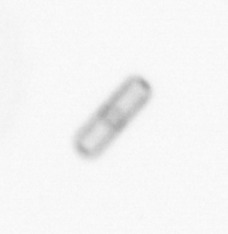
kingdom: Chromista
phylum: Ochrophyta
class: Bacillariophyceae
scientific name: Bacillariophyceae
